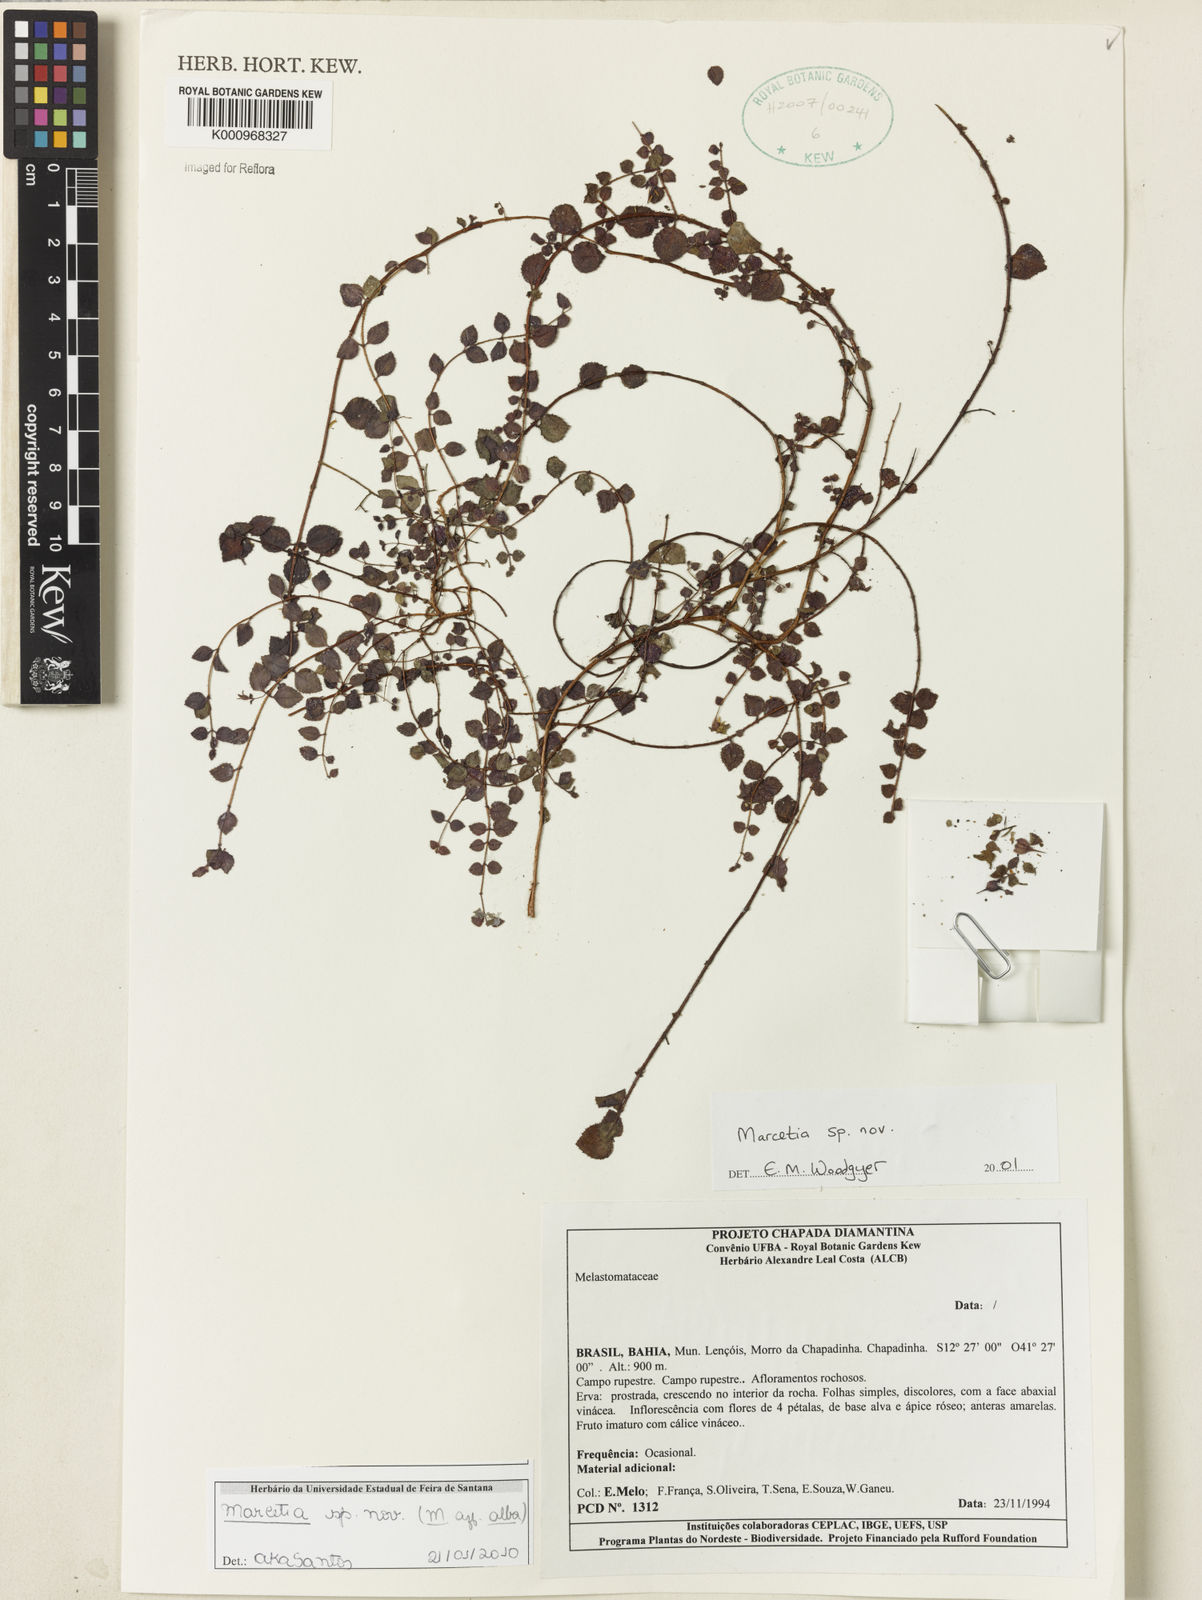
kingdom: Plantae
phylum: Tracheophyta
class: Magnoliopsida
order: Myrtales
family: Melastomataceae
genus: Marcetia
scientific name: Marcetia alba
